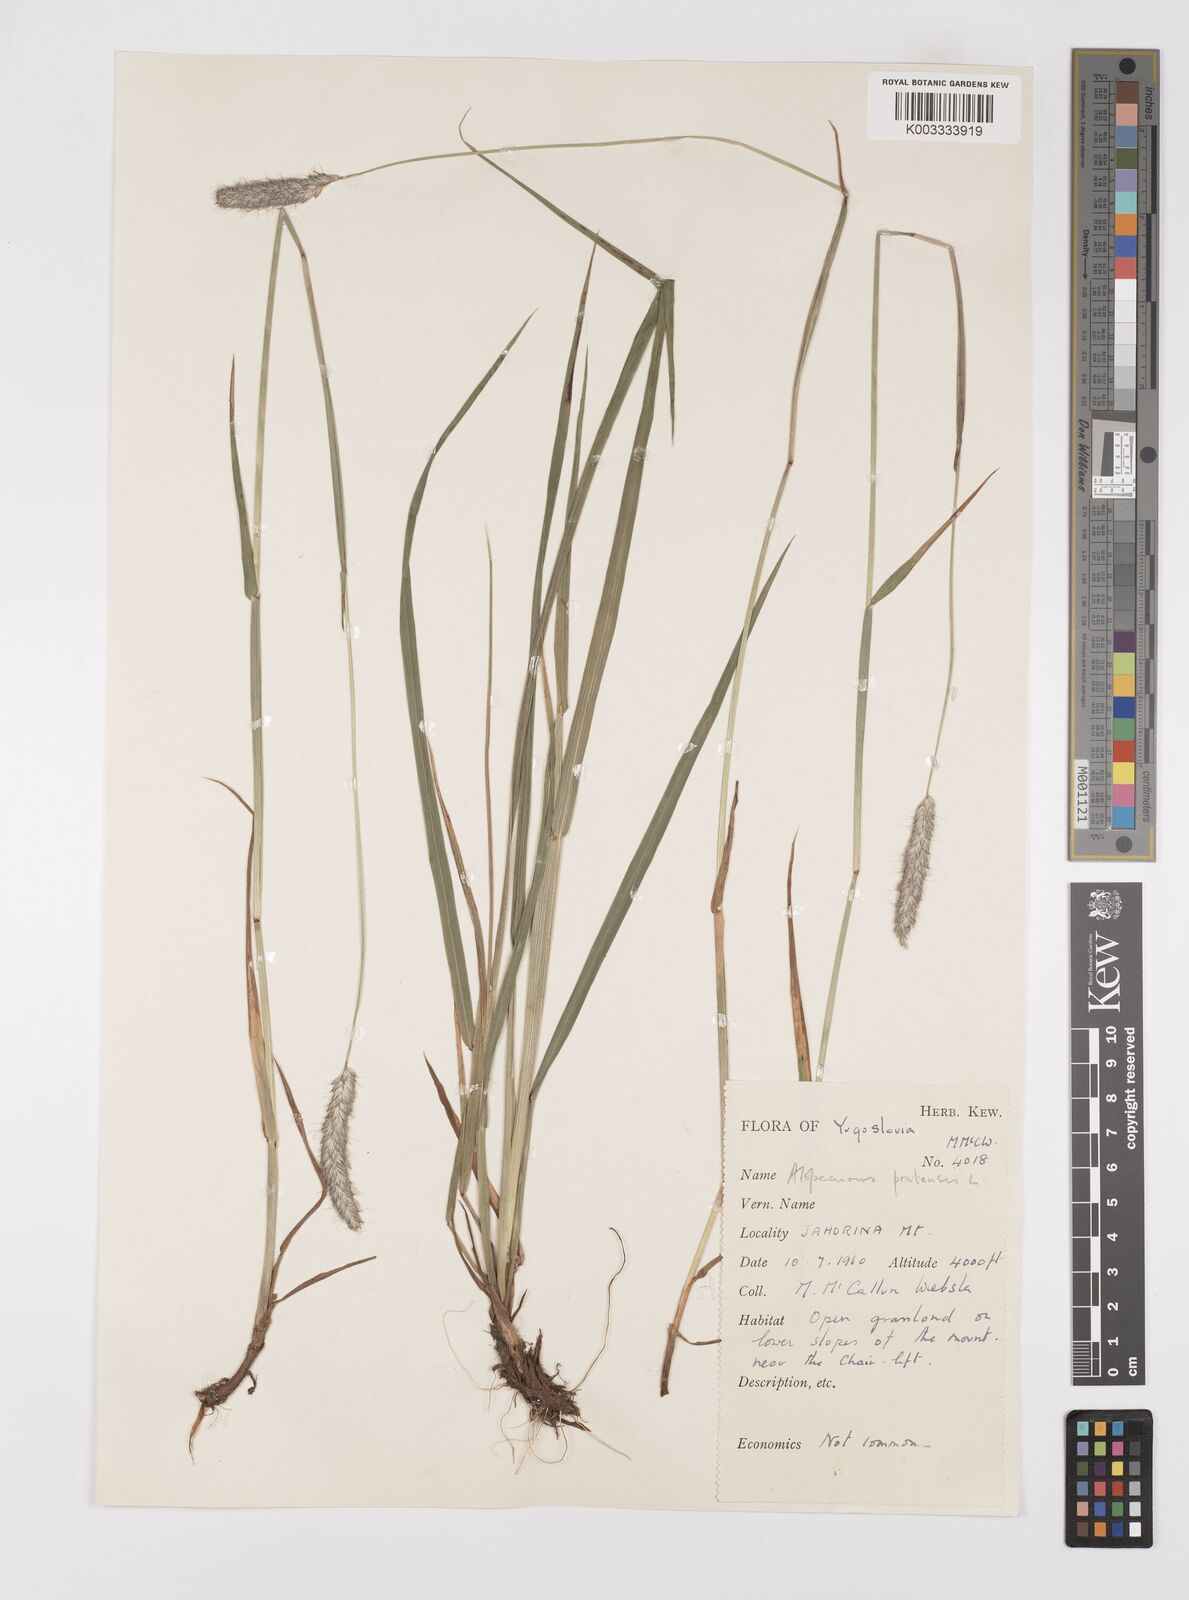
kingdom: Plantae
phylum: Tracheophyta
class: Liliopsida
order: Poales
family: Poaceae
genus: Alopecurus
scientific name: Alopecurus pratensis
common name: Meadow foxtail
